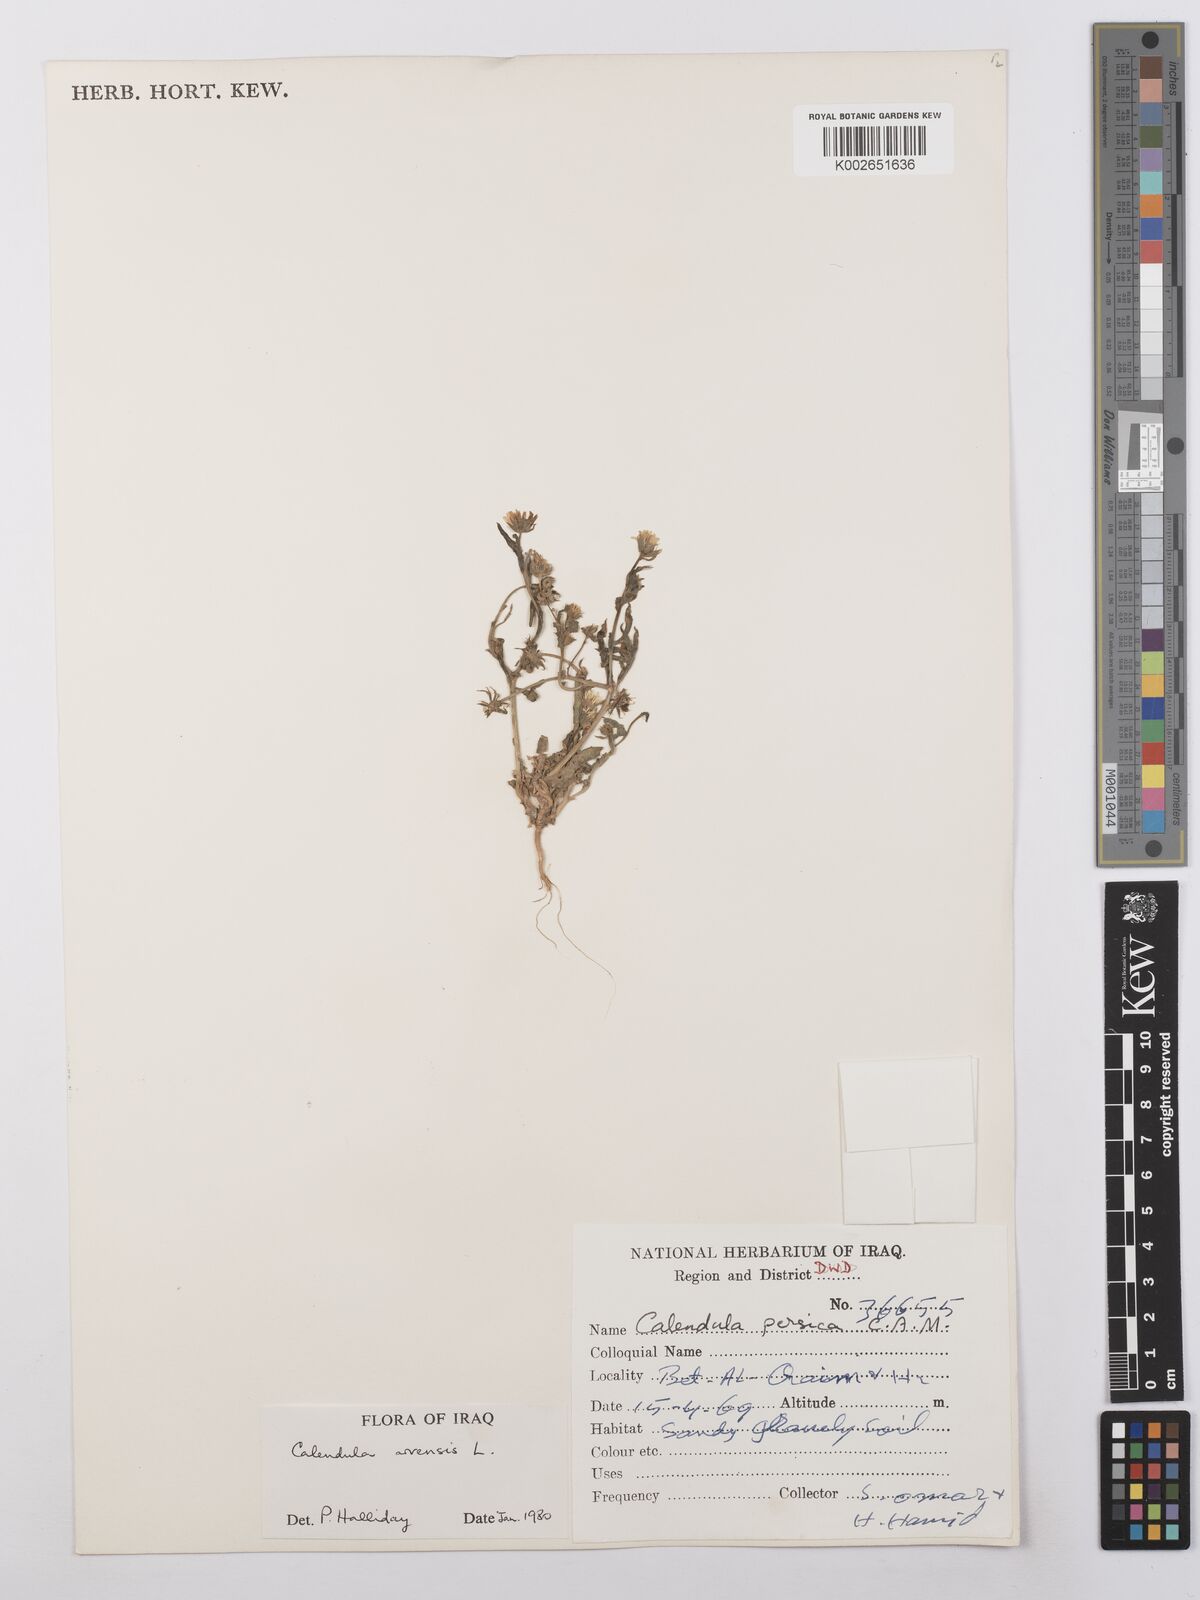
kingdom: Plantae
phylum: Tracheophyta
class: Magnoliopsida
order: Asterales
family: Asteraceae
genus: Calendula
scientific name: Calendula arvensis
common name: Field marigold
